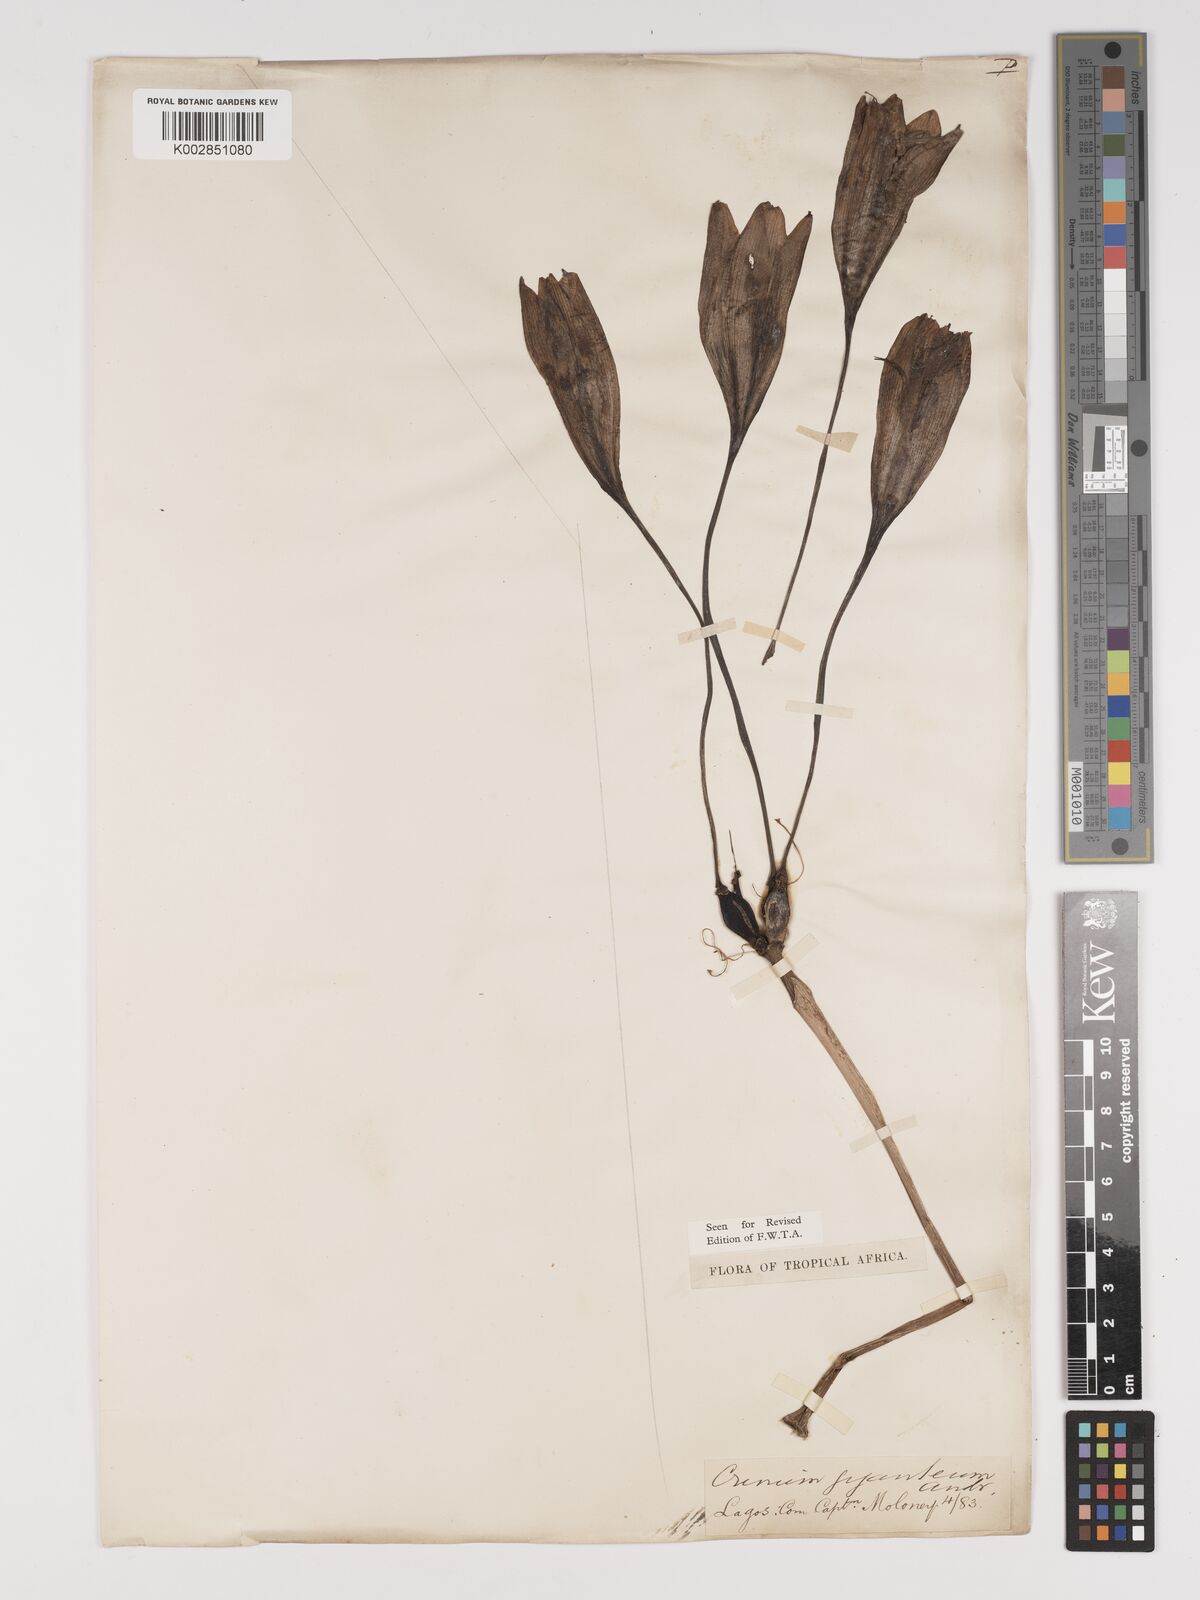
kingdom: Plantae
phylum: Tracheophyta
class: Liliopsida
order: Asparagales
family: Amaryllidaceae
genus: Crinum
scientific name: Crinum jagus
